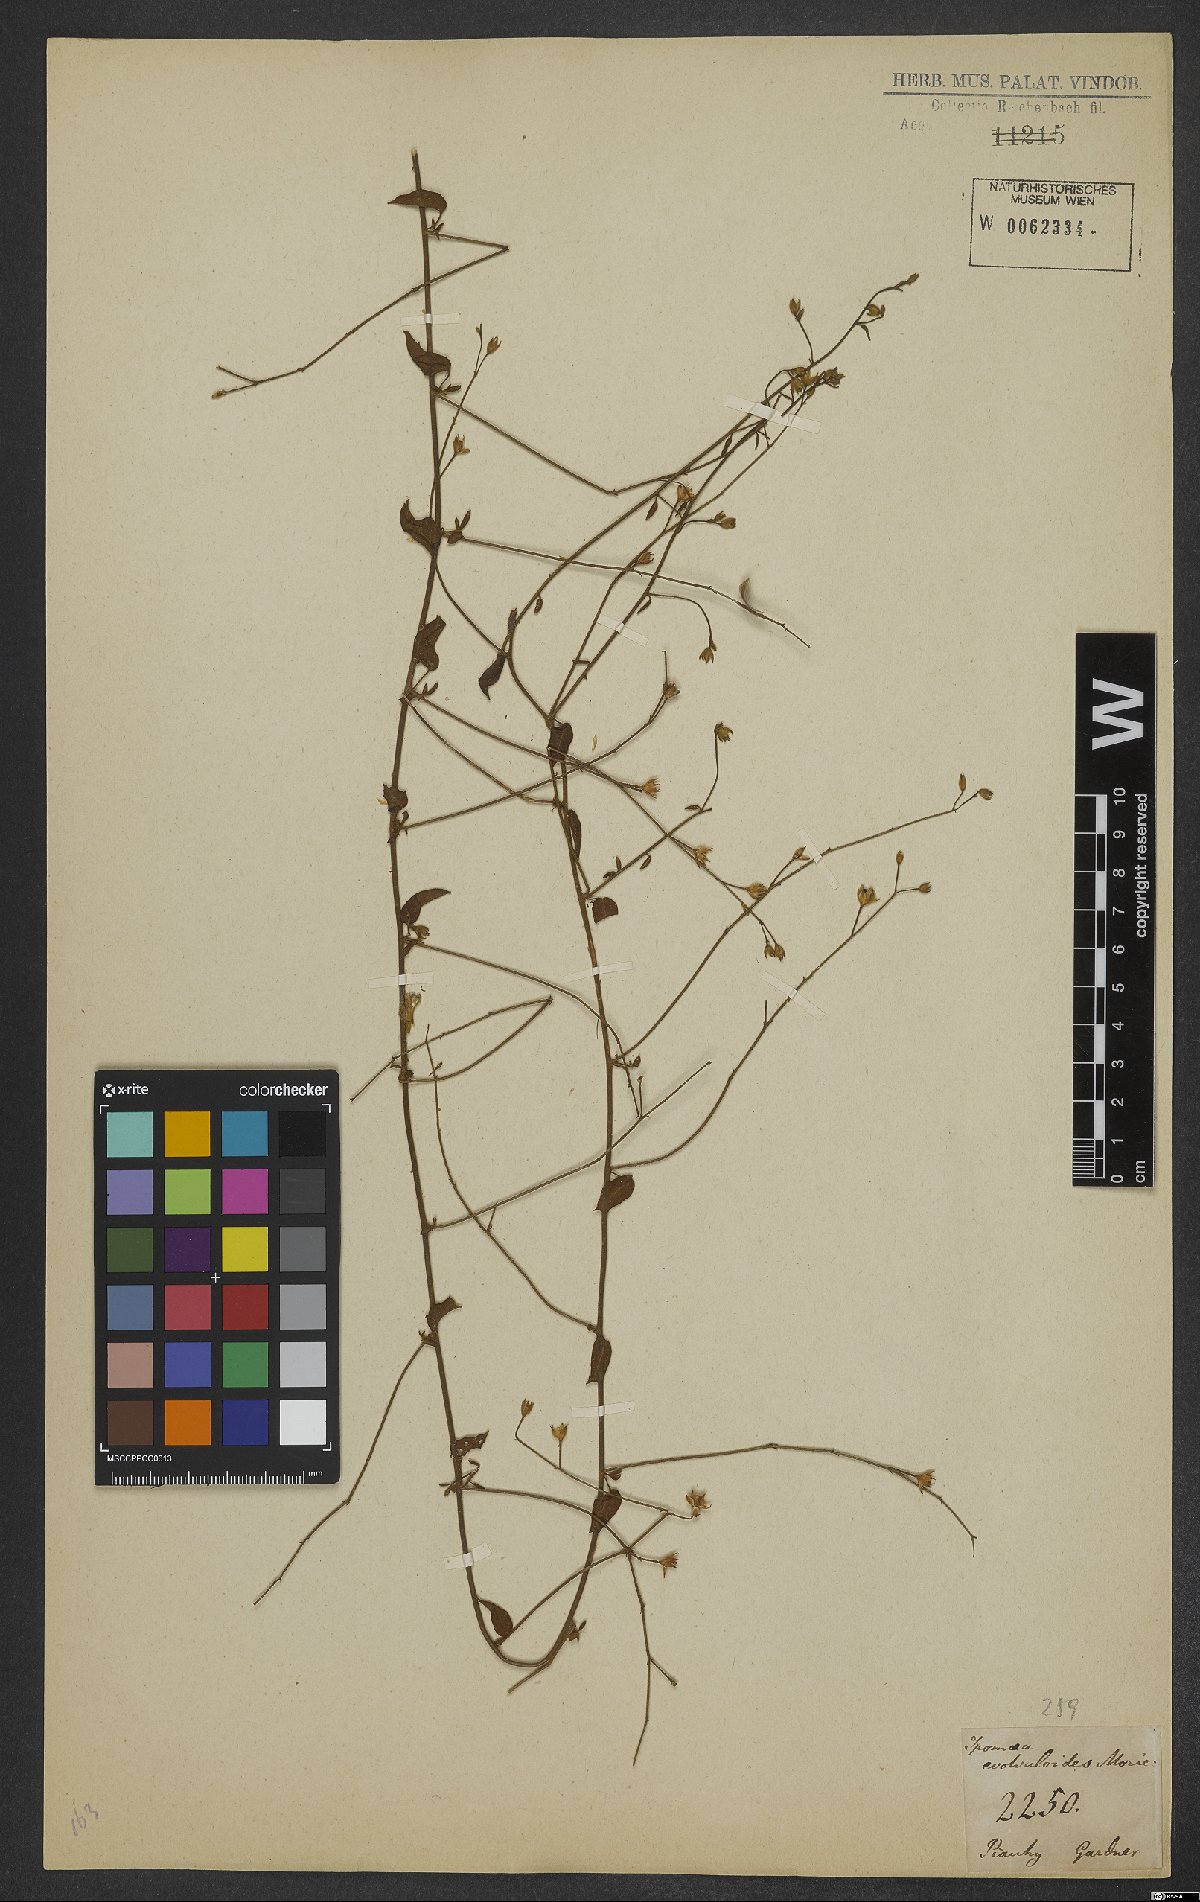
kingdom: Plantae
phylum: Tracheophyta
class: Magnoliopsida
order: Solanales
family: Convolvulaceae
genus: Jacquemontia
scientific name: Jacquemontia evolvuloides
